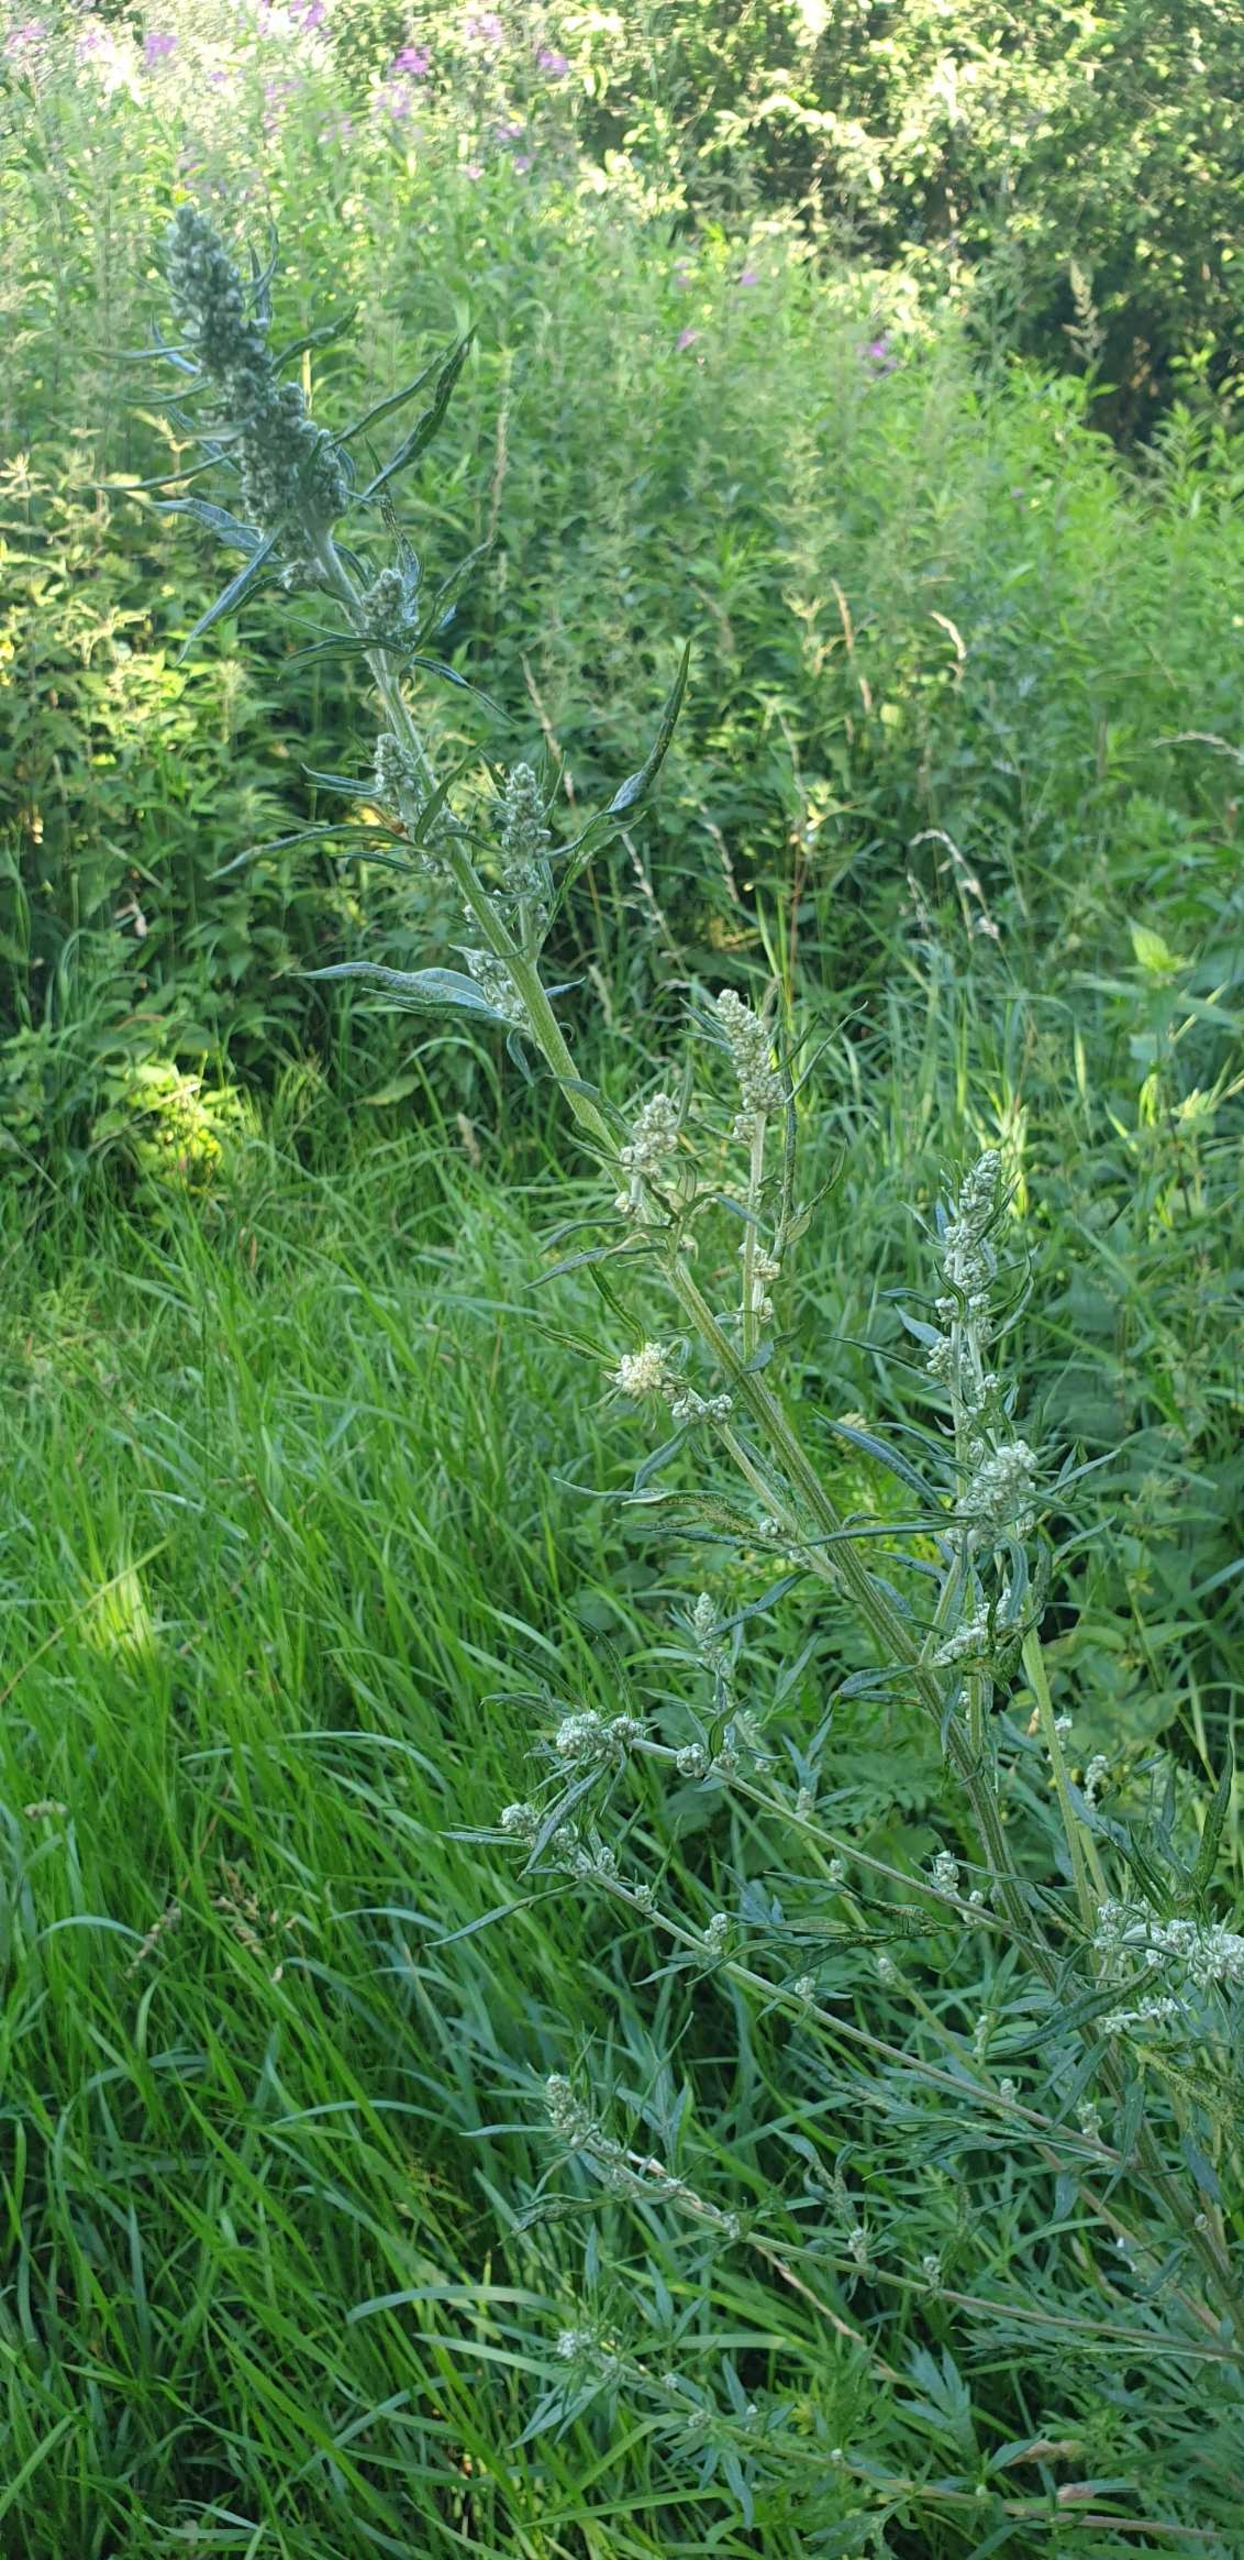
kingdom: Plantae
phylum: Tracheophyta
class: Magnoliopsida
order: Asterales
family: Asteraceae
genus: Artemisia
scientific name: Artemisia vulgaris
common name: Grå-bynke
